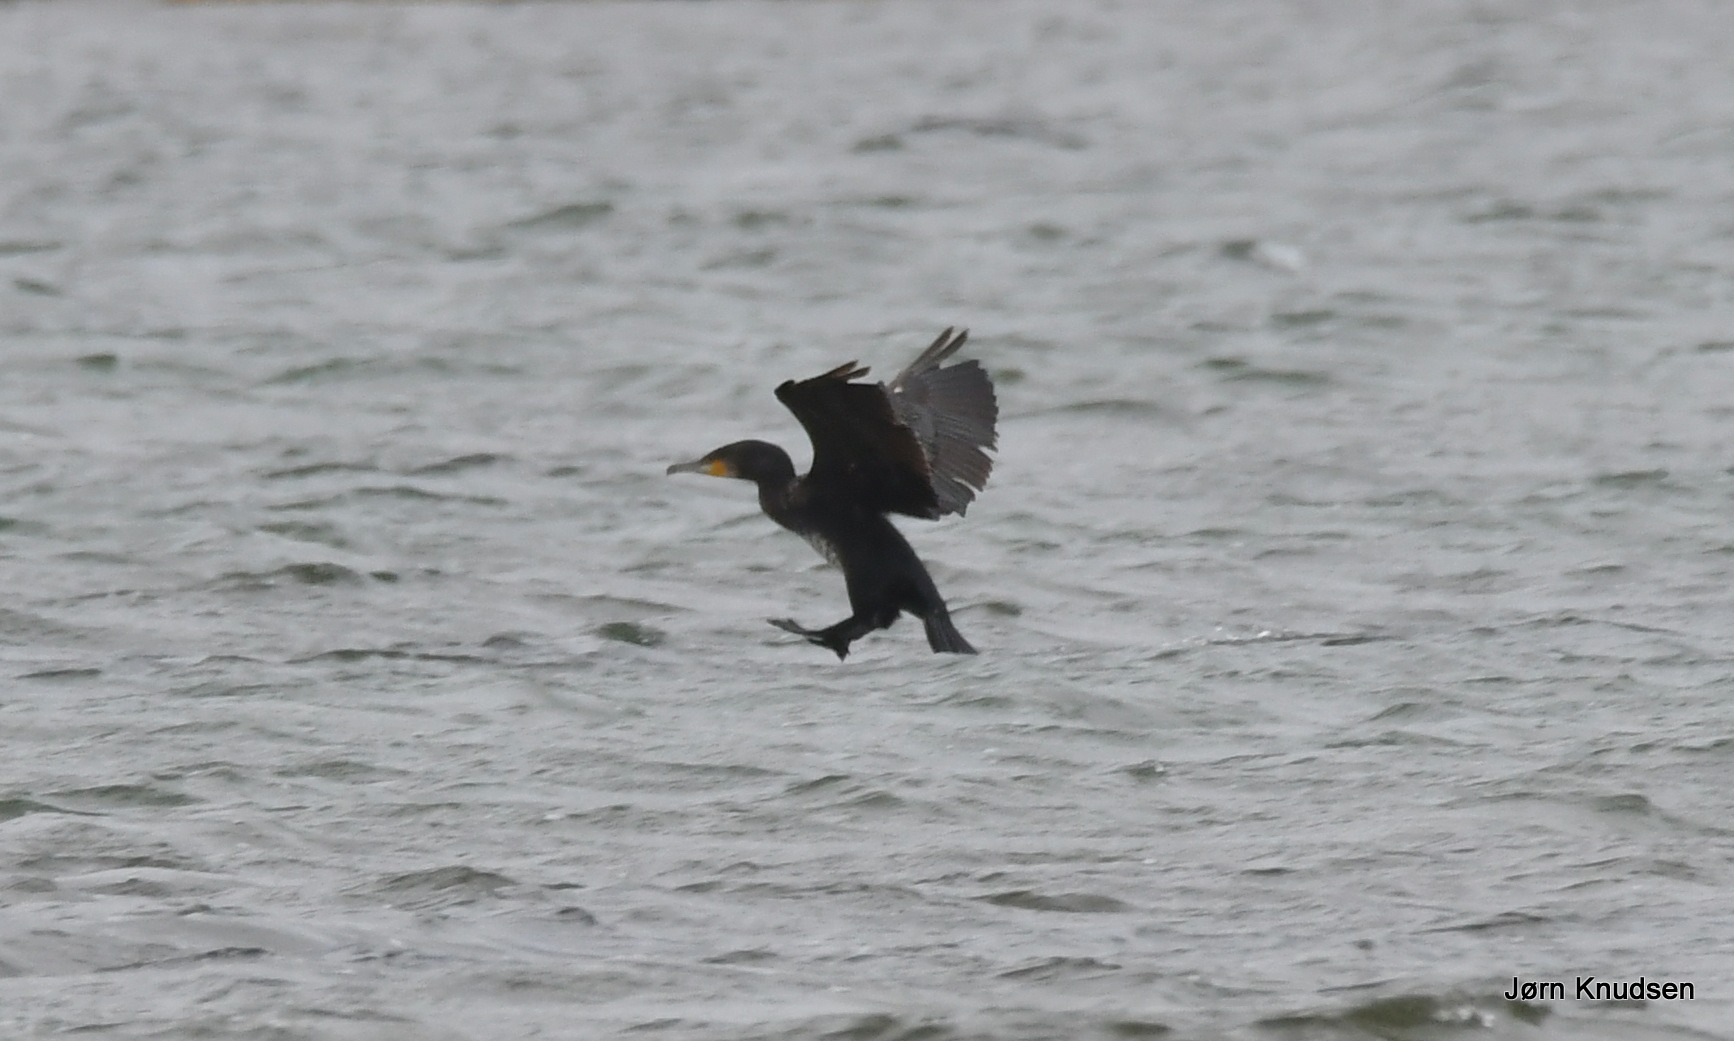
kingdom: Animalia
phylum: Chordata
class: Aves
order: Suliformes
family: Phalacrocoracidae
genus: Phalacrocorax
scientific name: Phalacrocorax carbo
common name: Skarv
